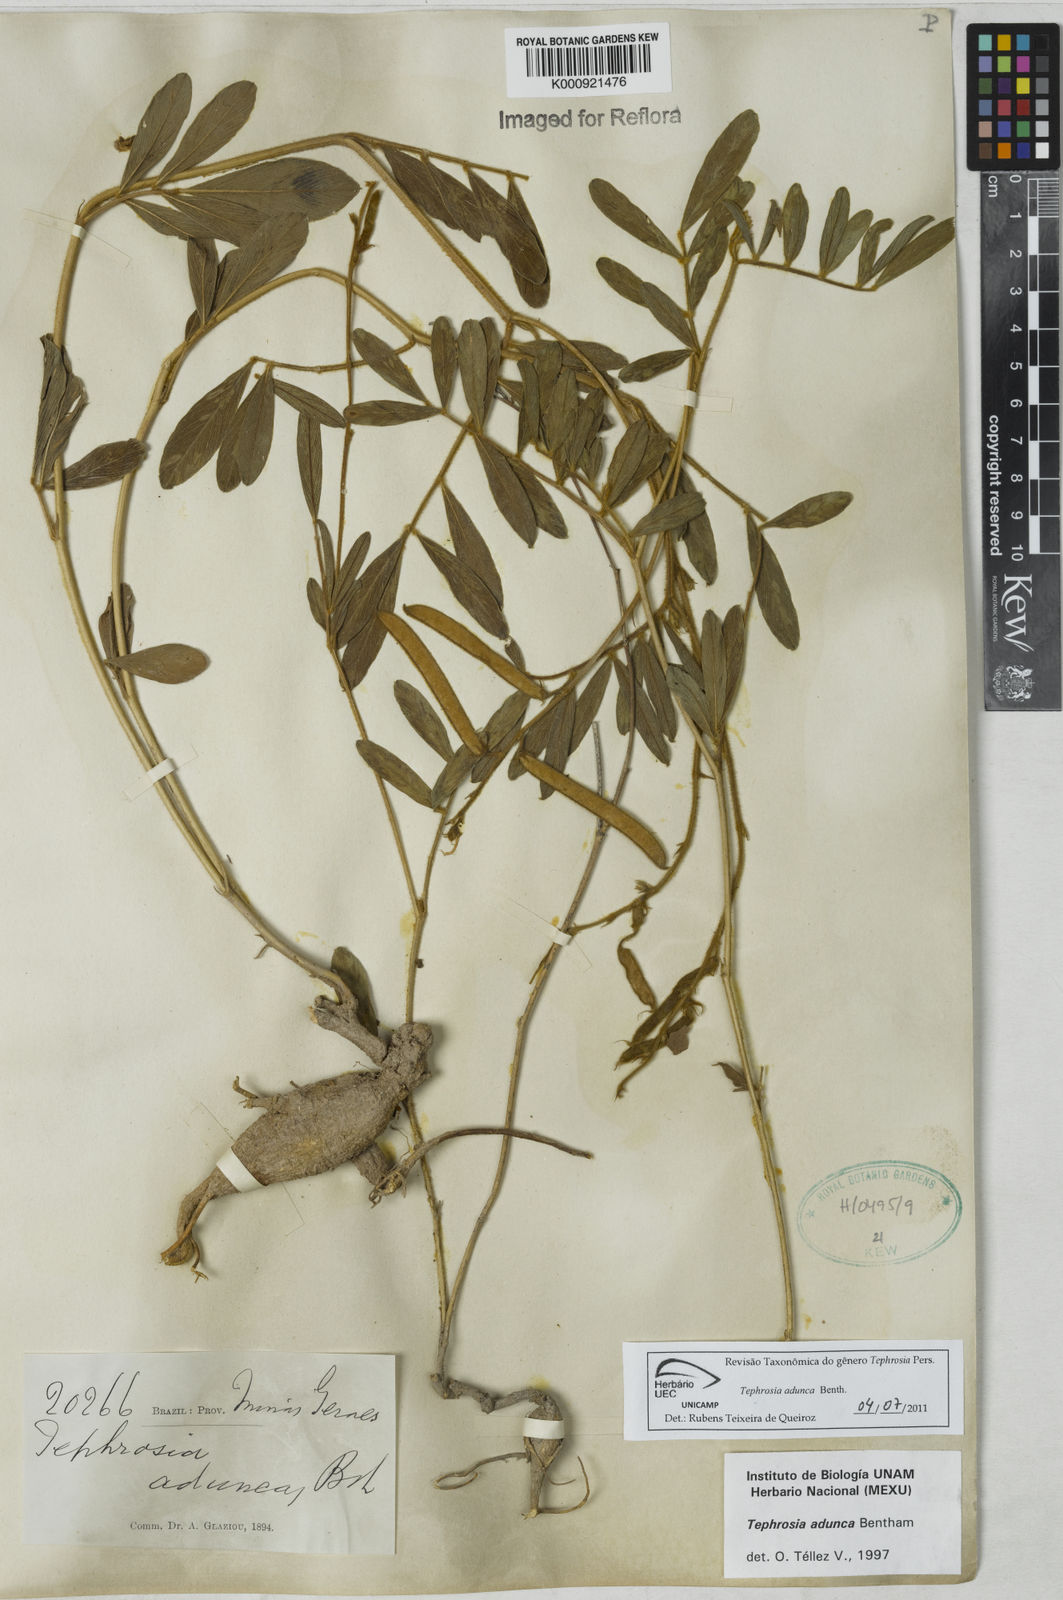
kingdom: Plantae
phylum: Tracheophyta
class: Magnoliopsida
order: Fabales
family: Fabaceae
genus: Tephrosia
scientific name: Tephrosia adunca
